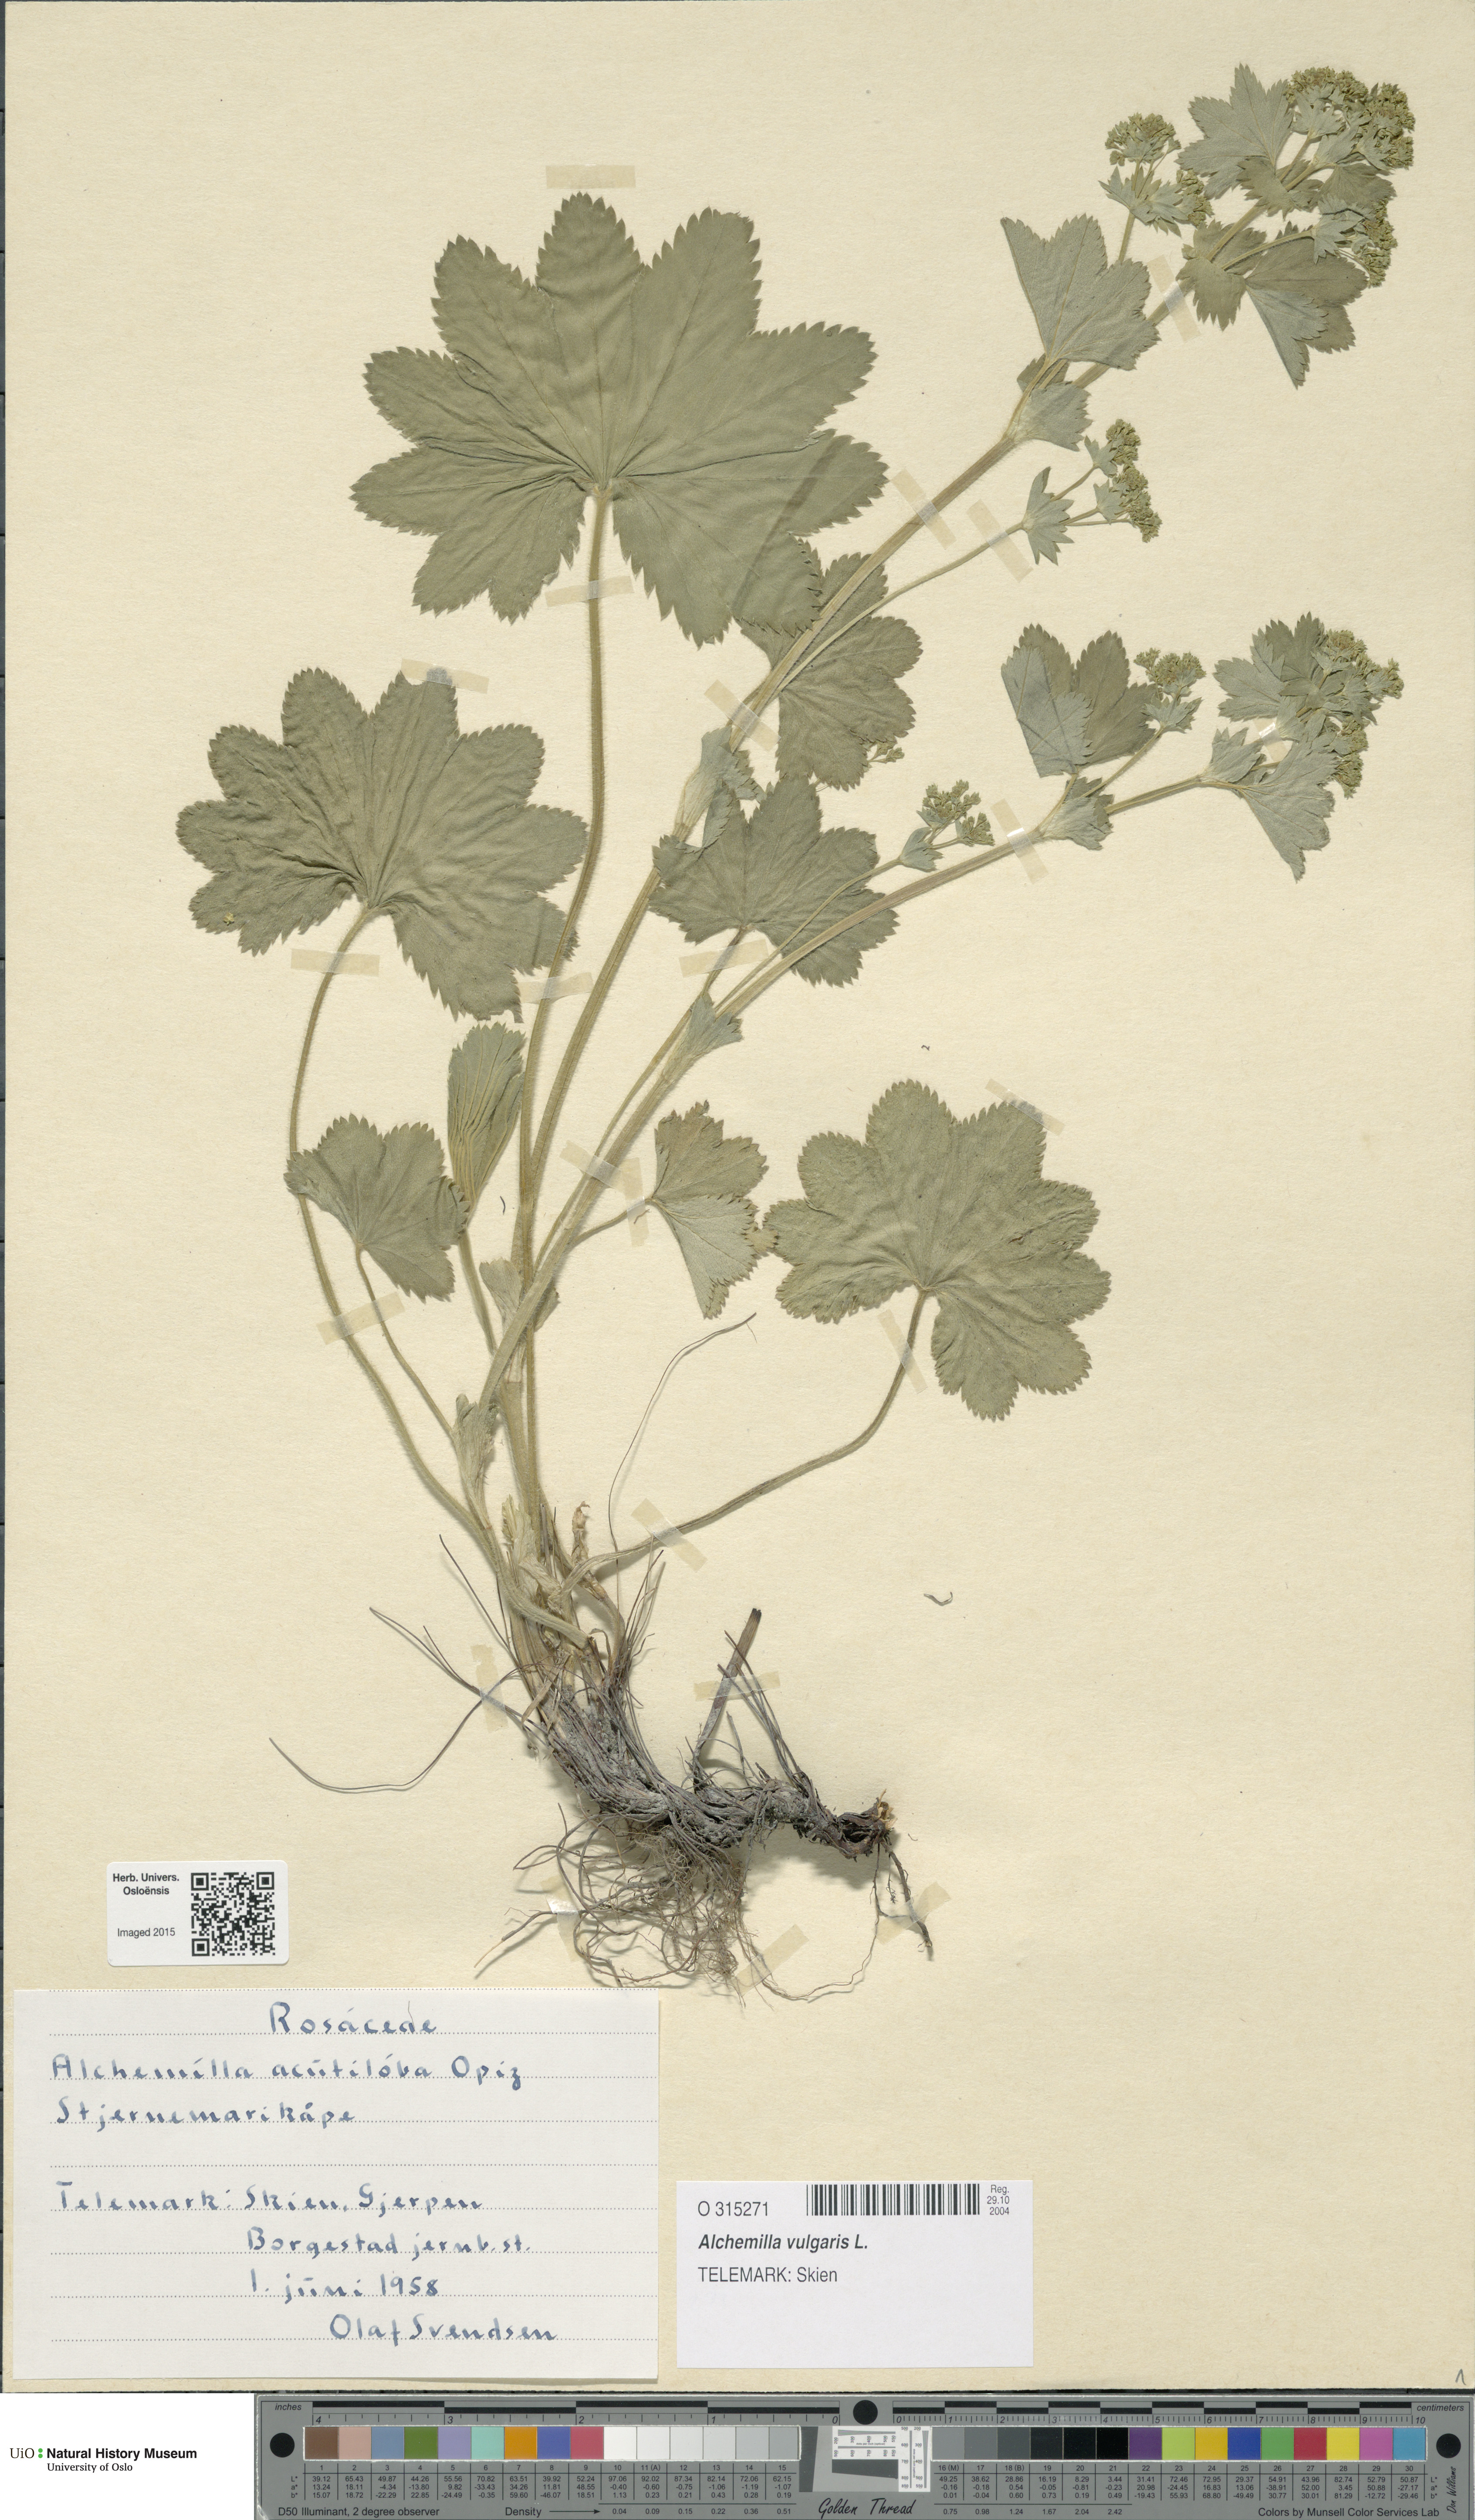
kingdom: Plantae
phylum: Tracheophyta
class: Magnoliopsida
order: Rosales
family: Rosaceae
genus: Alchemilla
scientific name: Alchemilla vulgaris
